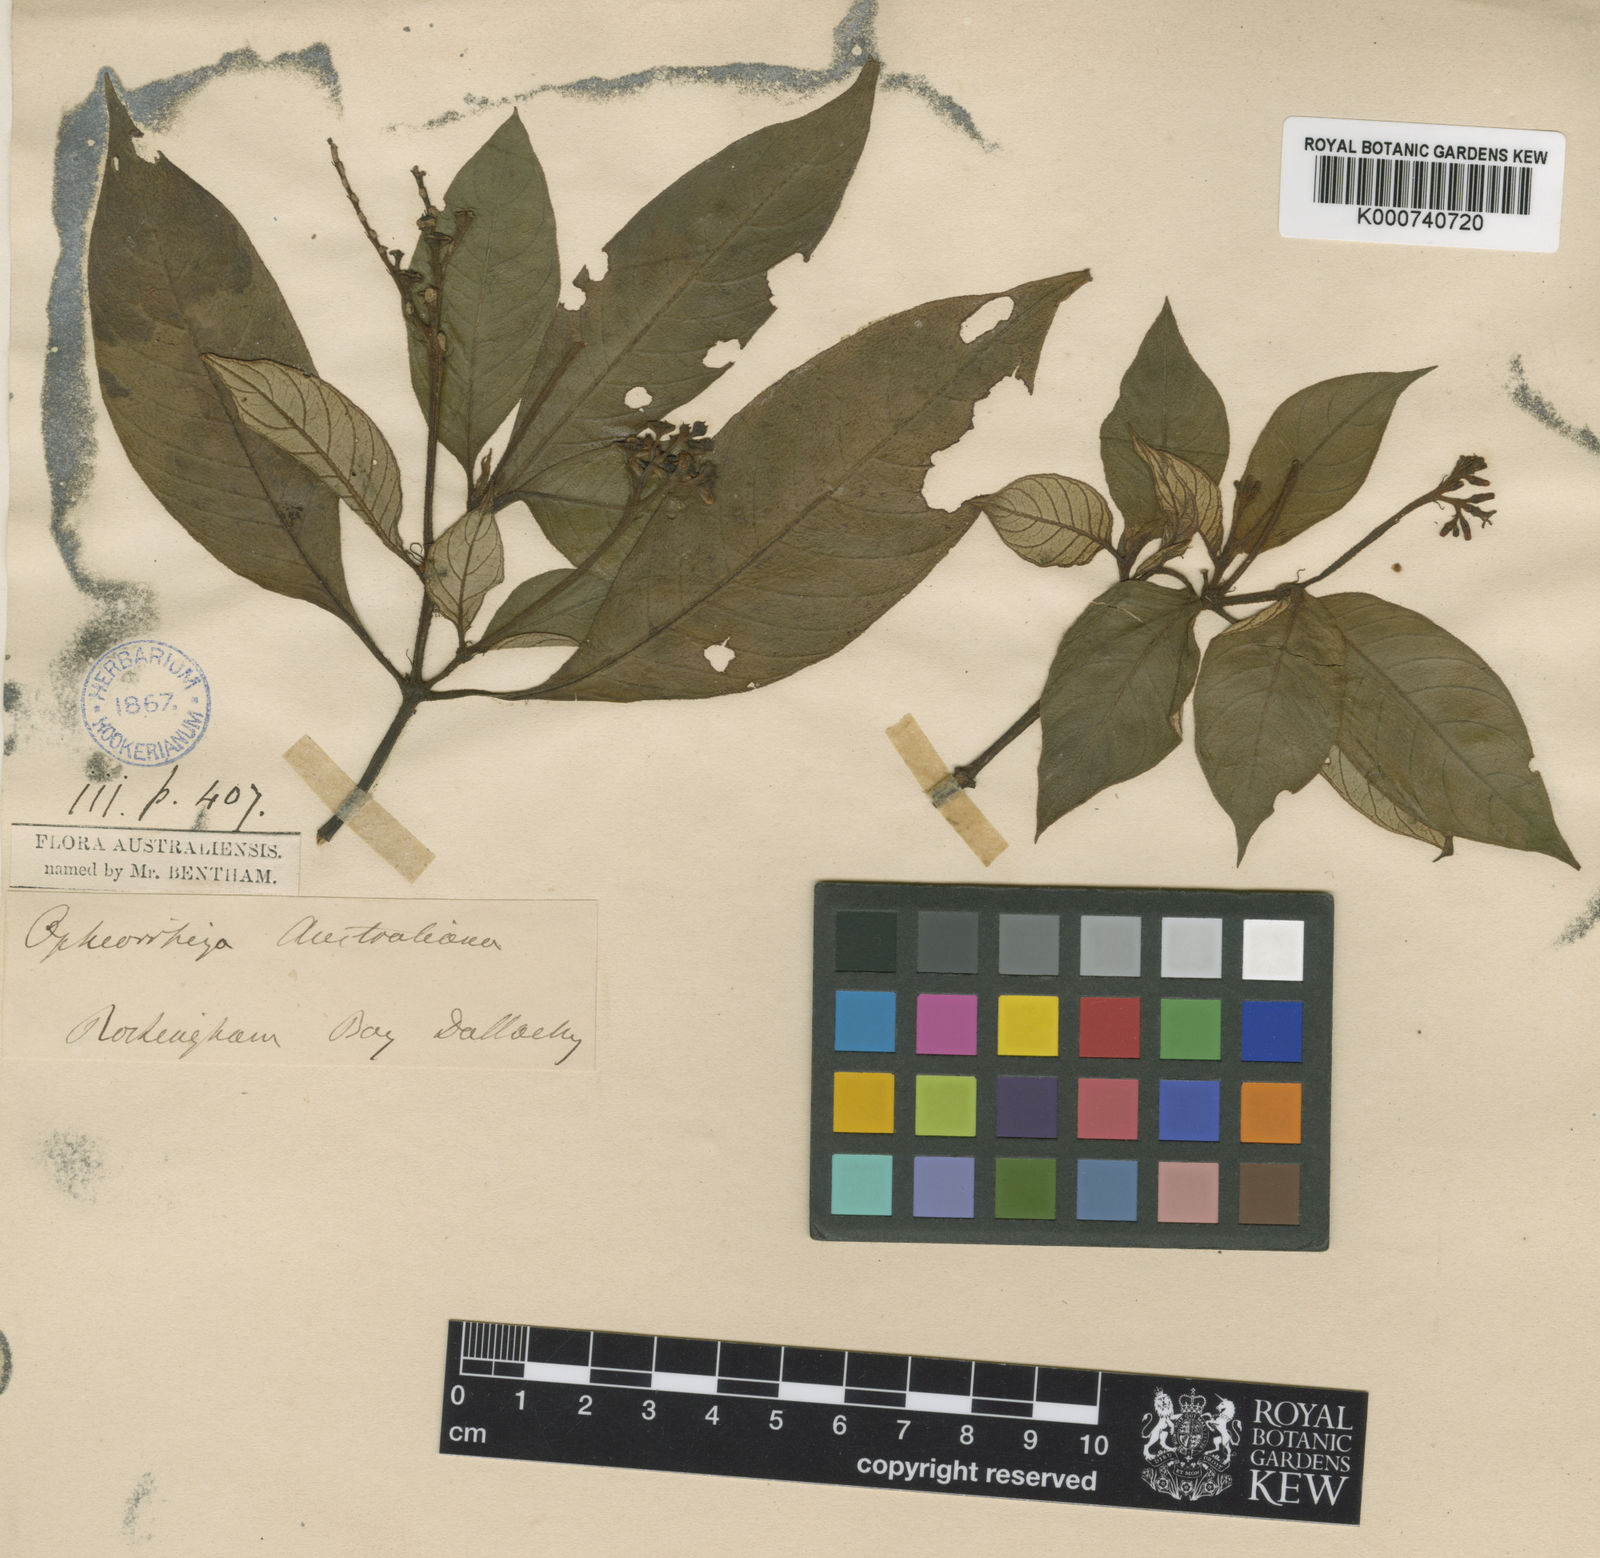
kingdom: Plantae
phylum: Tracheophyta
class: Magnoliopsida
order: Gentianales
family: Rubiaceae
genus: Ophiorrhiza
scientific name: Ophiorrhiza australiana
